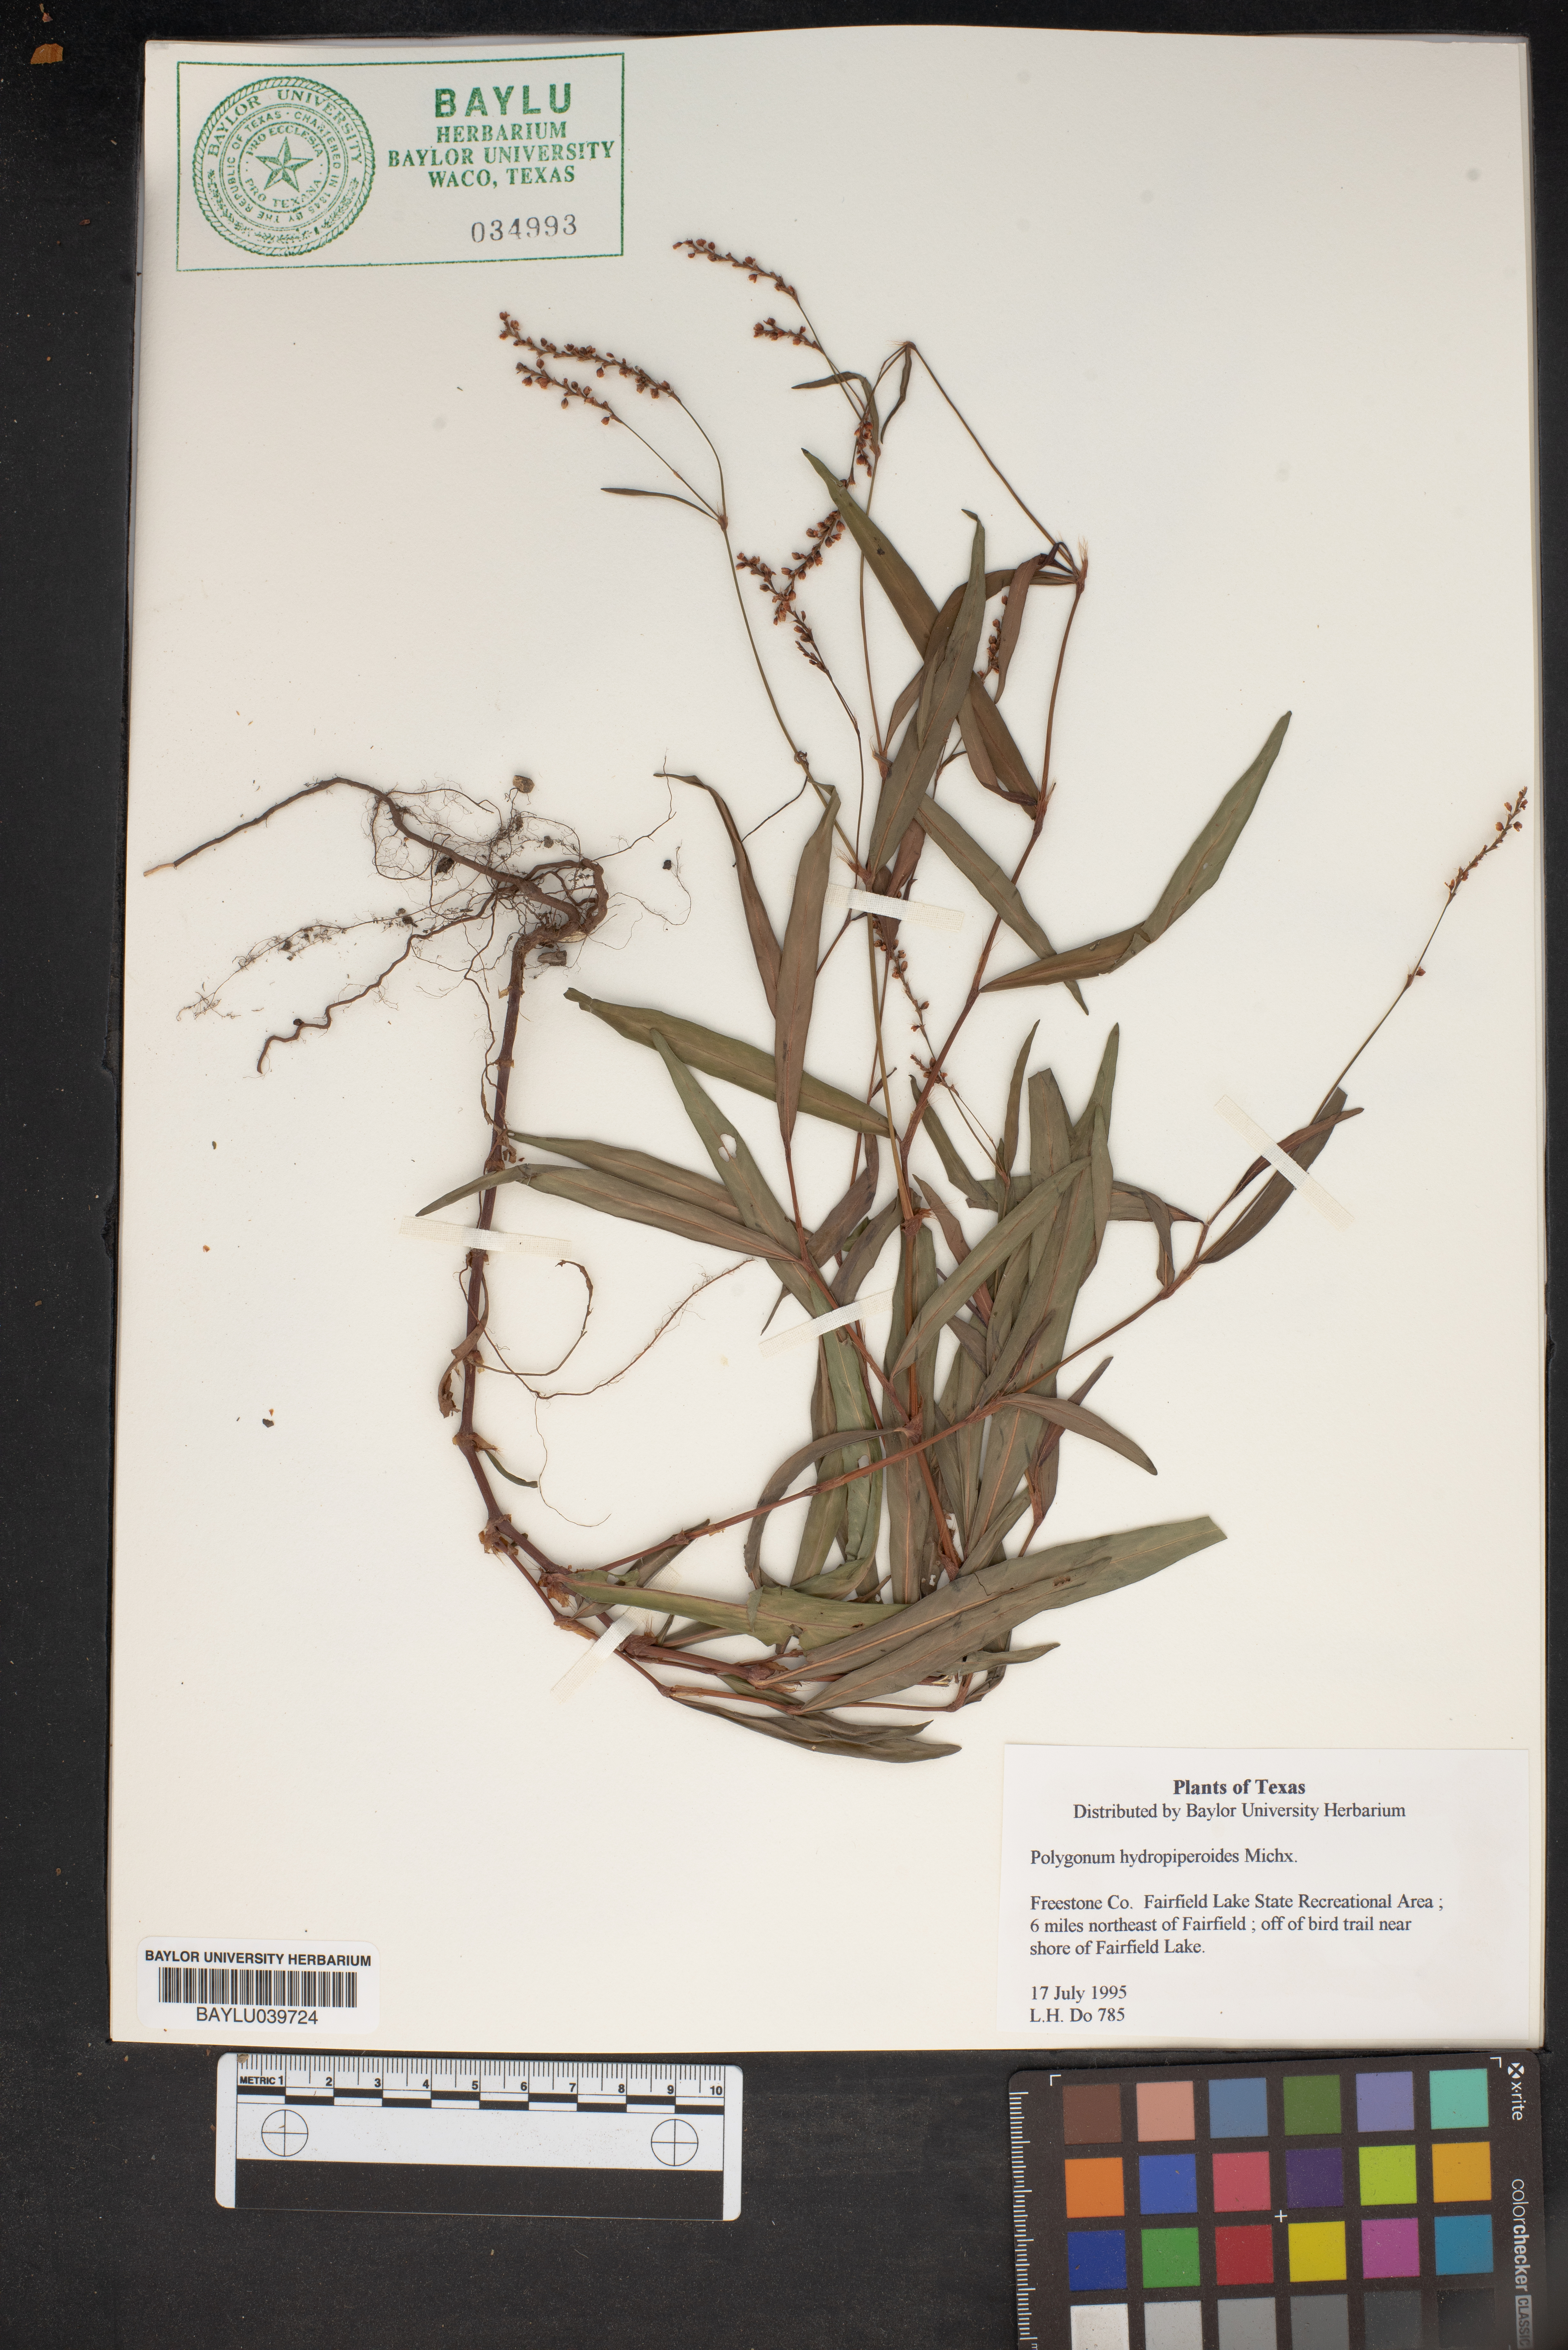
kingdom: Plantae
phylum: Tracheophyta
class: Magnoliopsida
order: Caryophyllales
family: Polygonaceae
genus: Persicaria
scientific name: Persicaria hydropiperoides
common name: Swamp smartweed
